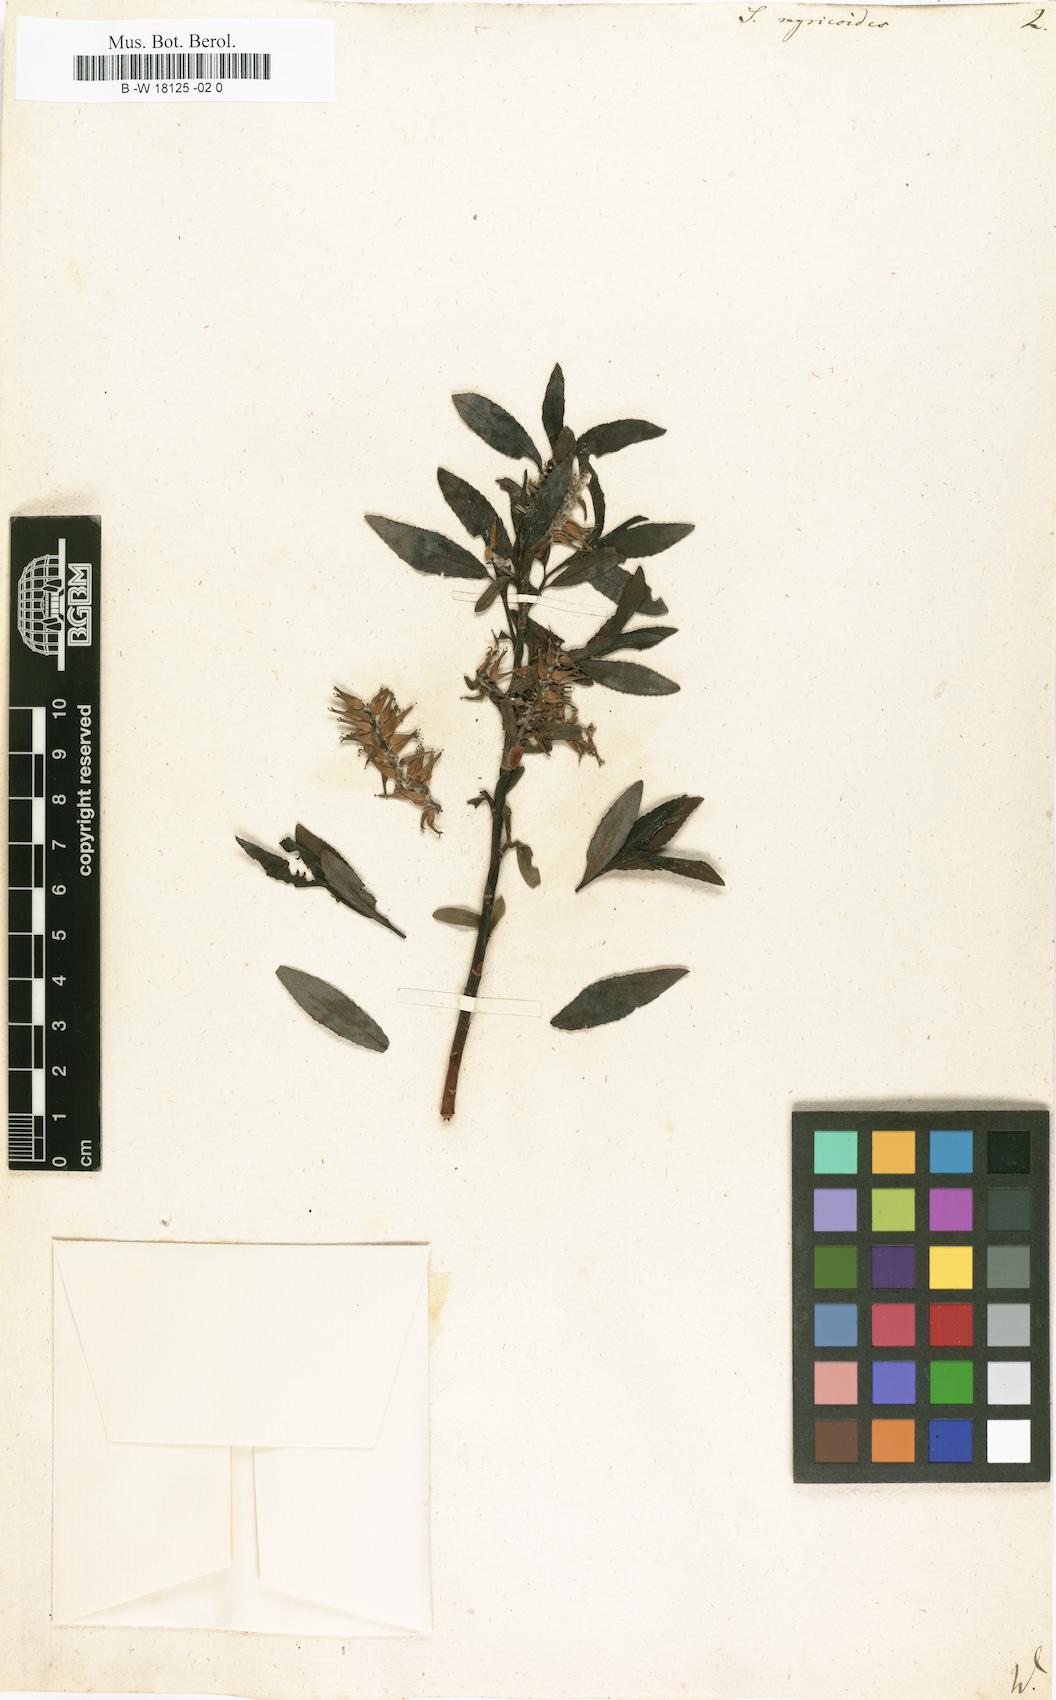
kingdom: Plantae
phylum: Tracheophyta
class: Magnoliopsida
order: Malpighiales
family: Salicaceae
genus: Salix
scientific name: Salix myricoides
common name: Bayberry willow
